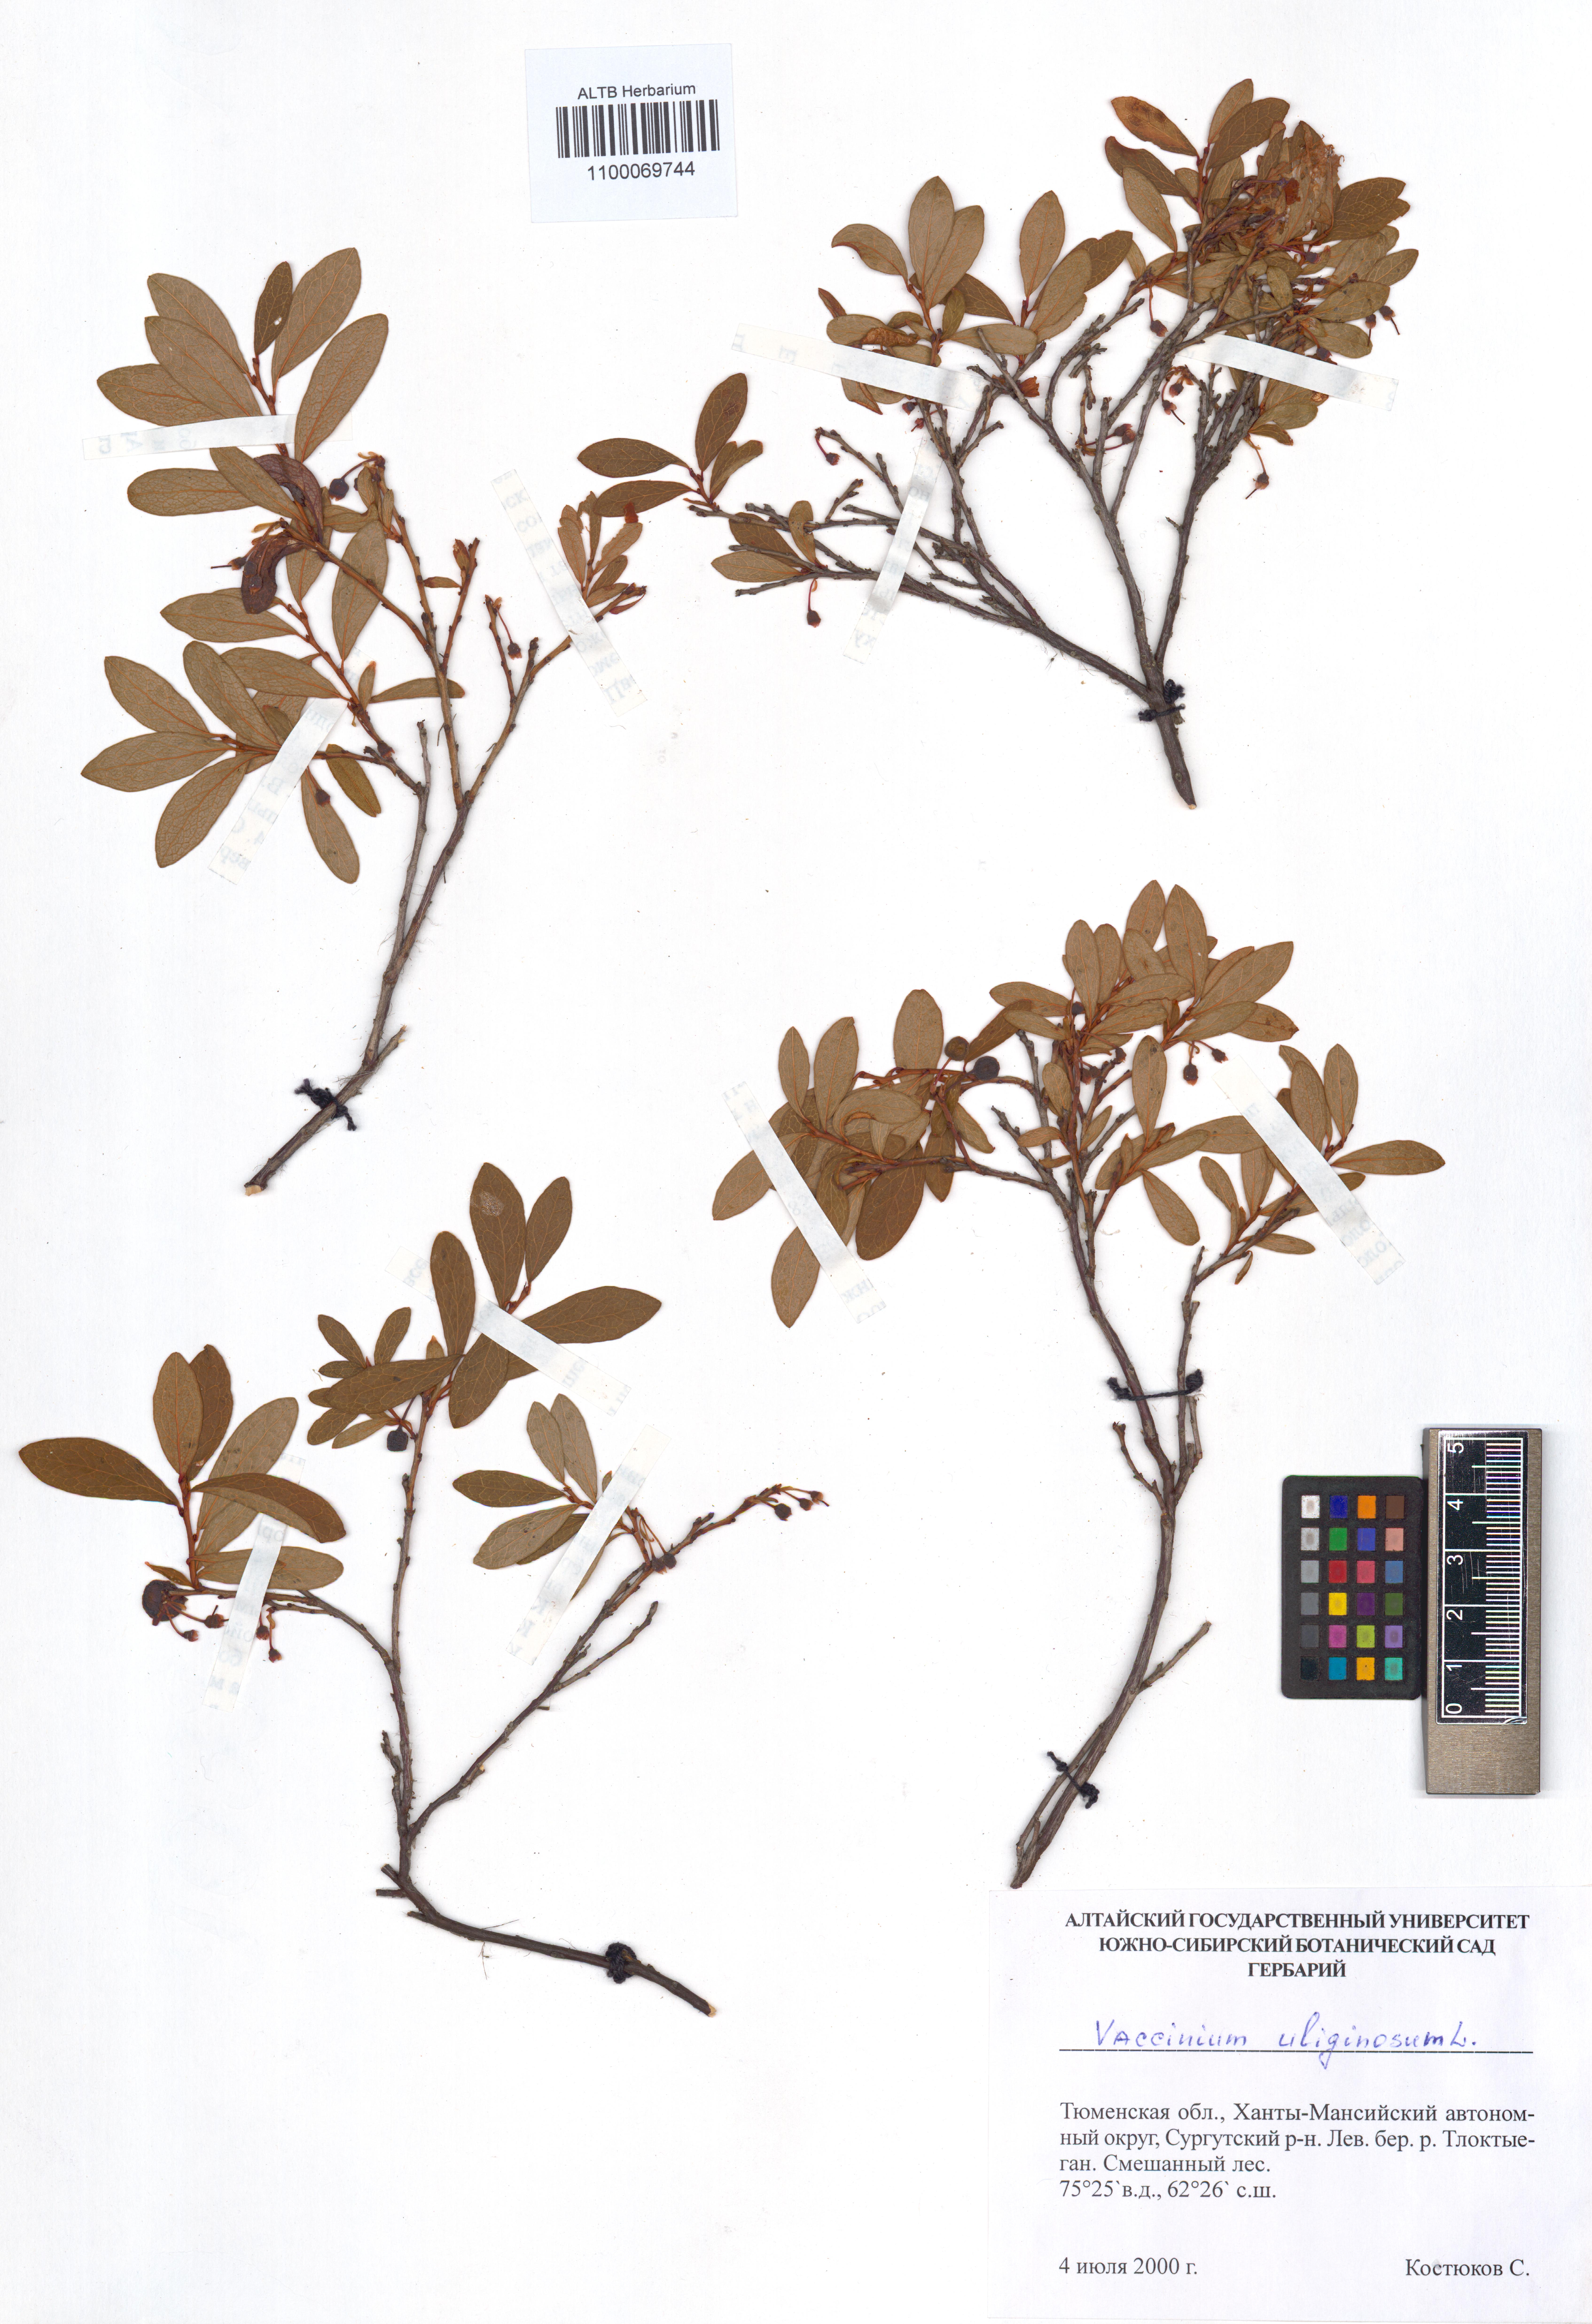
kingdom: Plantae
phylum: Tracheophyta
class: Magnoliopsida
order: Ericales
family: Ericaceae
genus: Vaccinium
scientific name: Vaccinium uliginosum
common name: Bog bilberry
